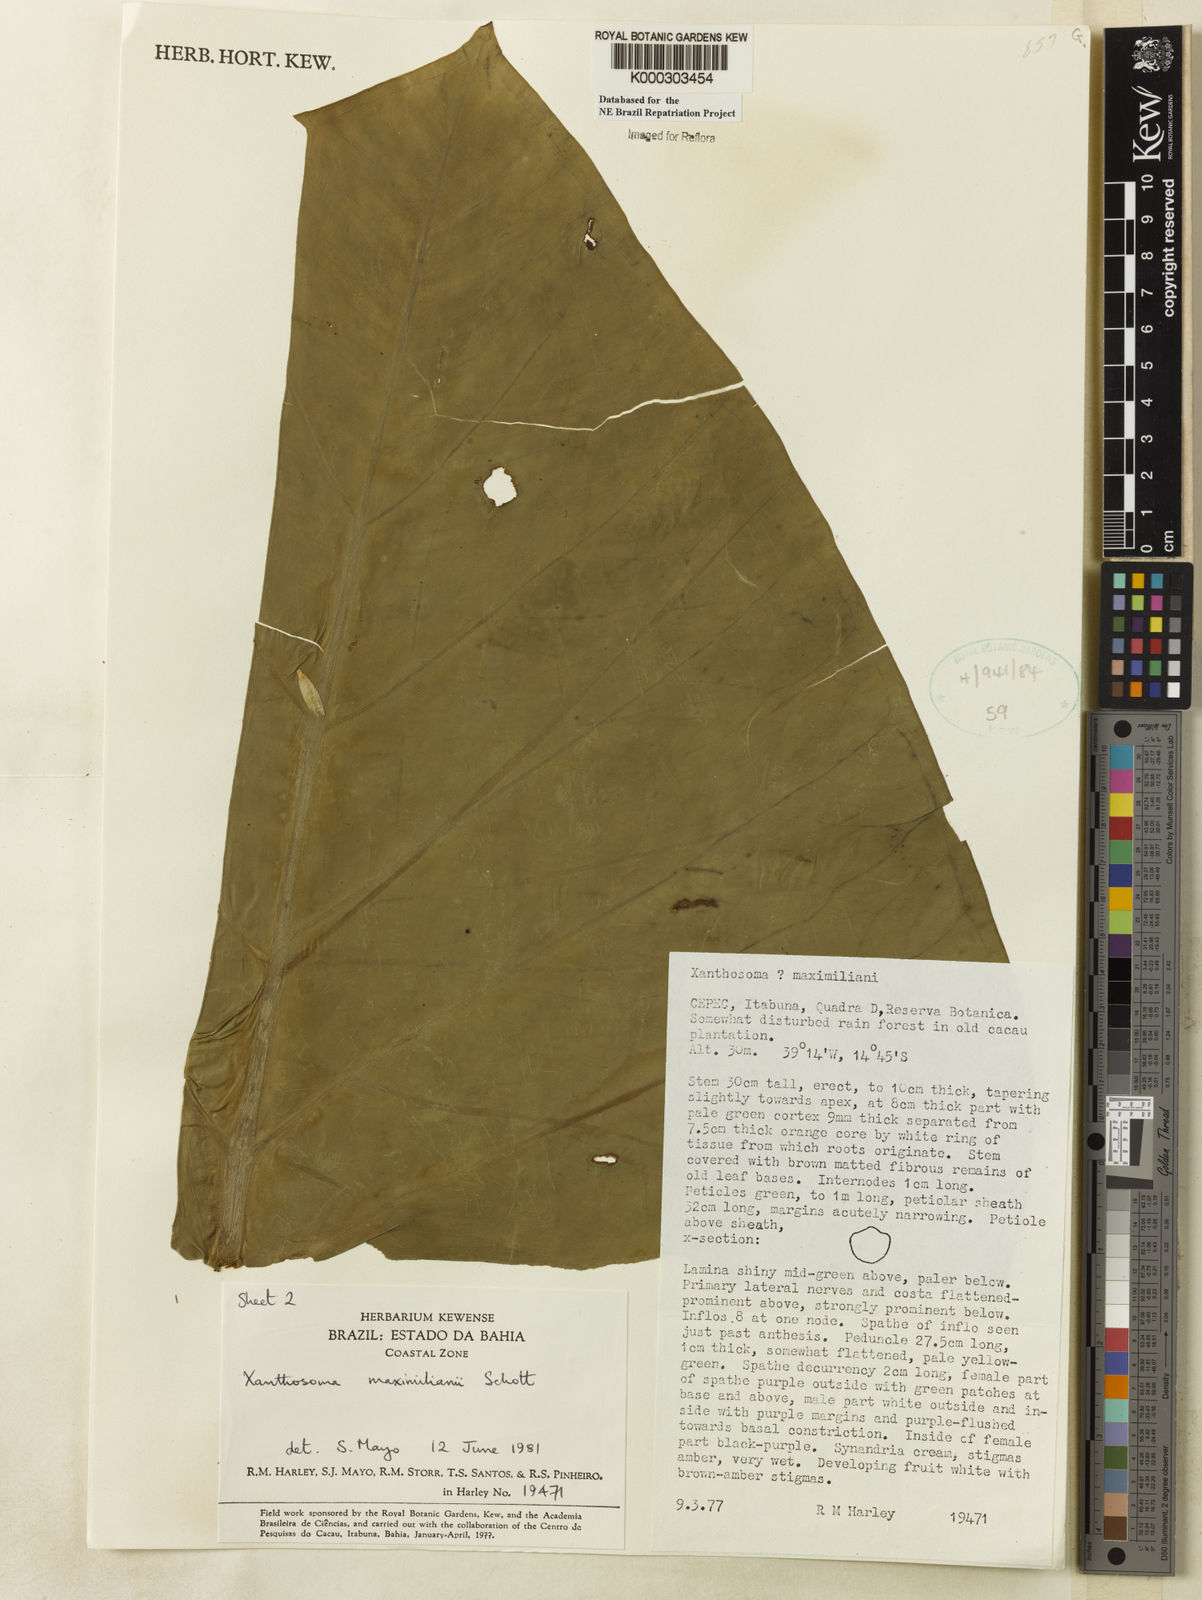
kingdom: Plantae
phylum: Tracheophyta
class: Liliopsida
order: Alismatales
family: Araceae
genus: Xanthosoma
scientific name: Xanthosoma maximiliani
